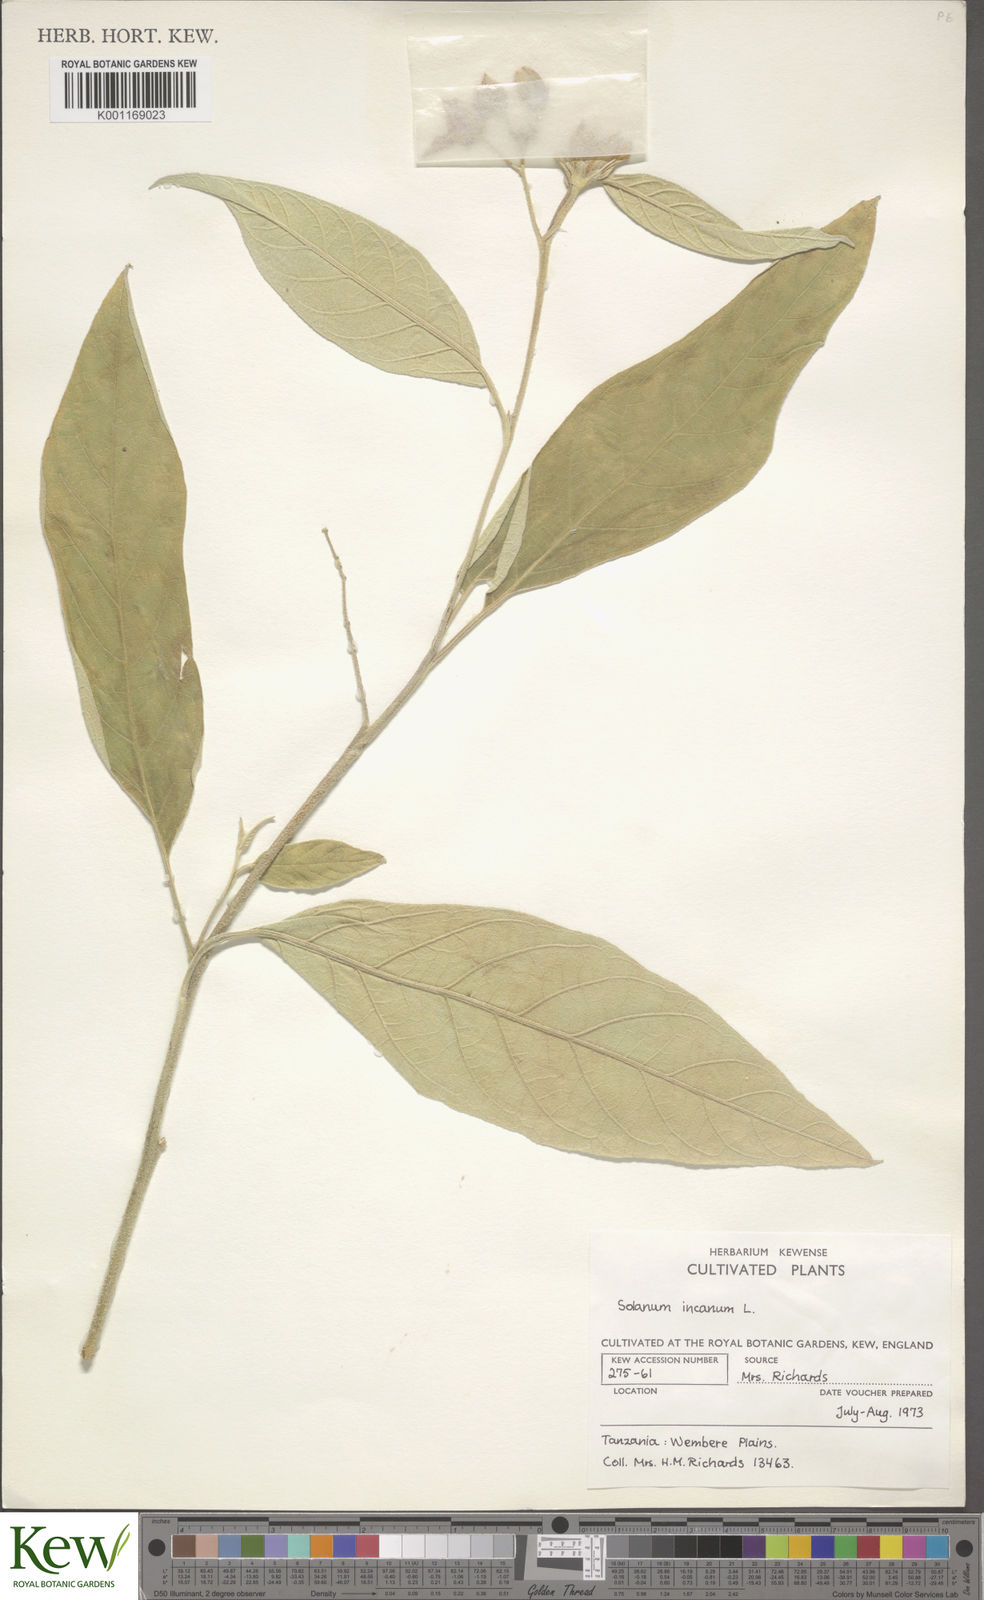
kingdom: Plantae
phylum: Tracheophyta
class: Magnoliopsida
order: Solanales
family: Solanaceae
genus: Solanum
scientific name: Solanum incanum
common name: Bitter apple
